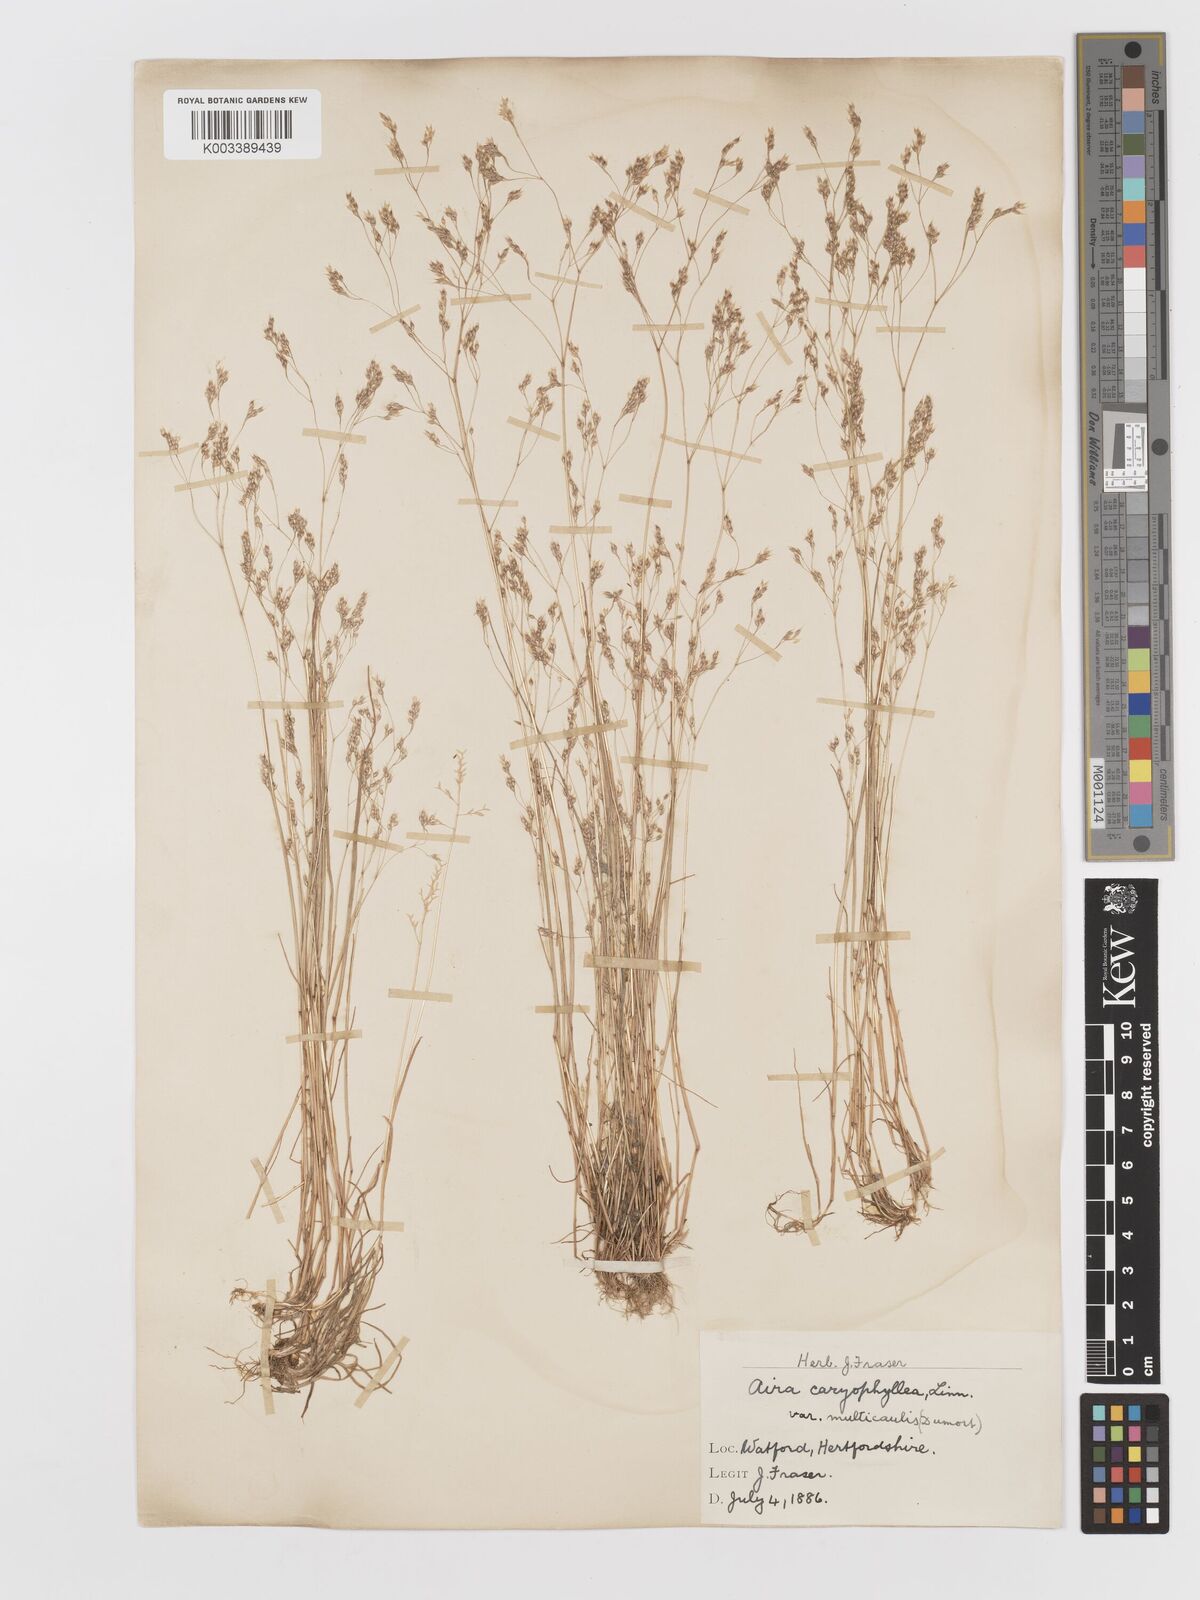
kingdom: Plantae
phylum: Tracheophyta
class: Liliopsida
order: Poales
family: Poaceae
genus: Aira
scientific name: Aira caryophyllea
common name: Silver hairgrass
